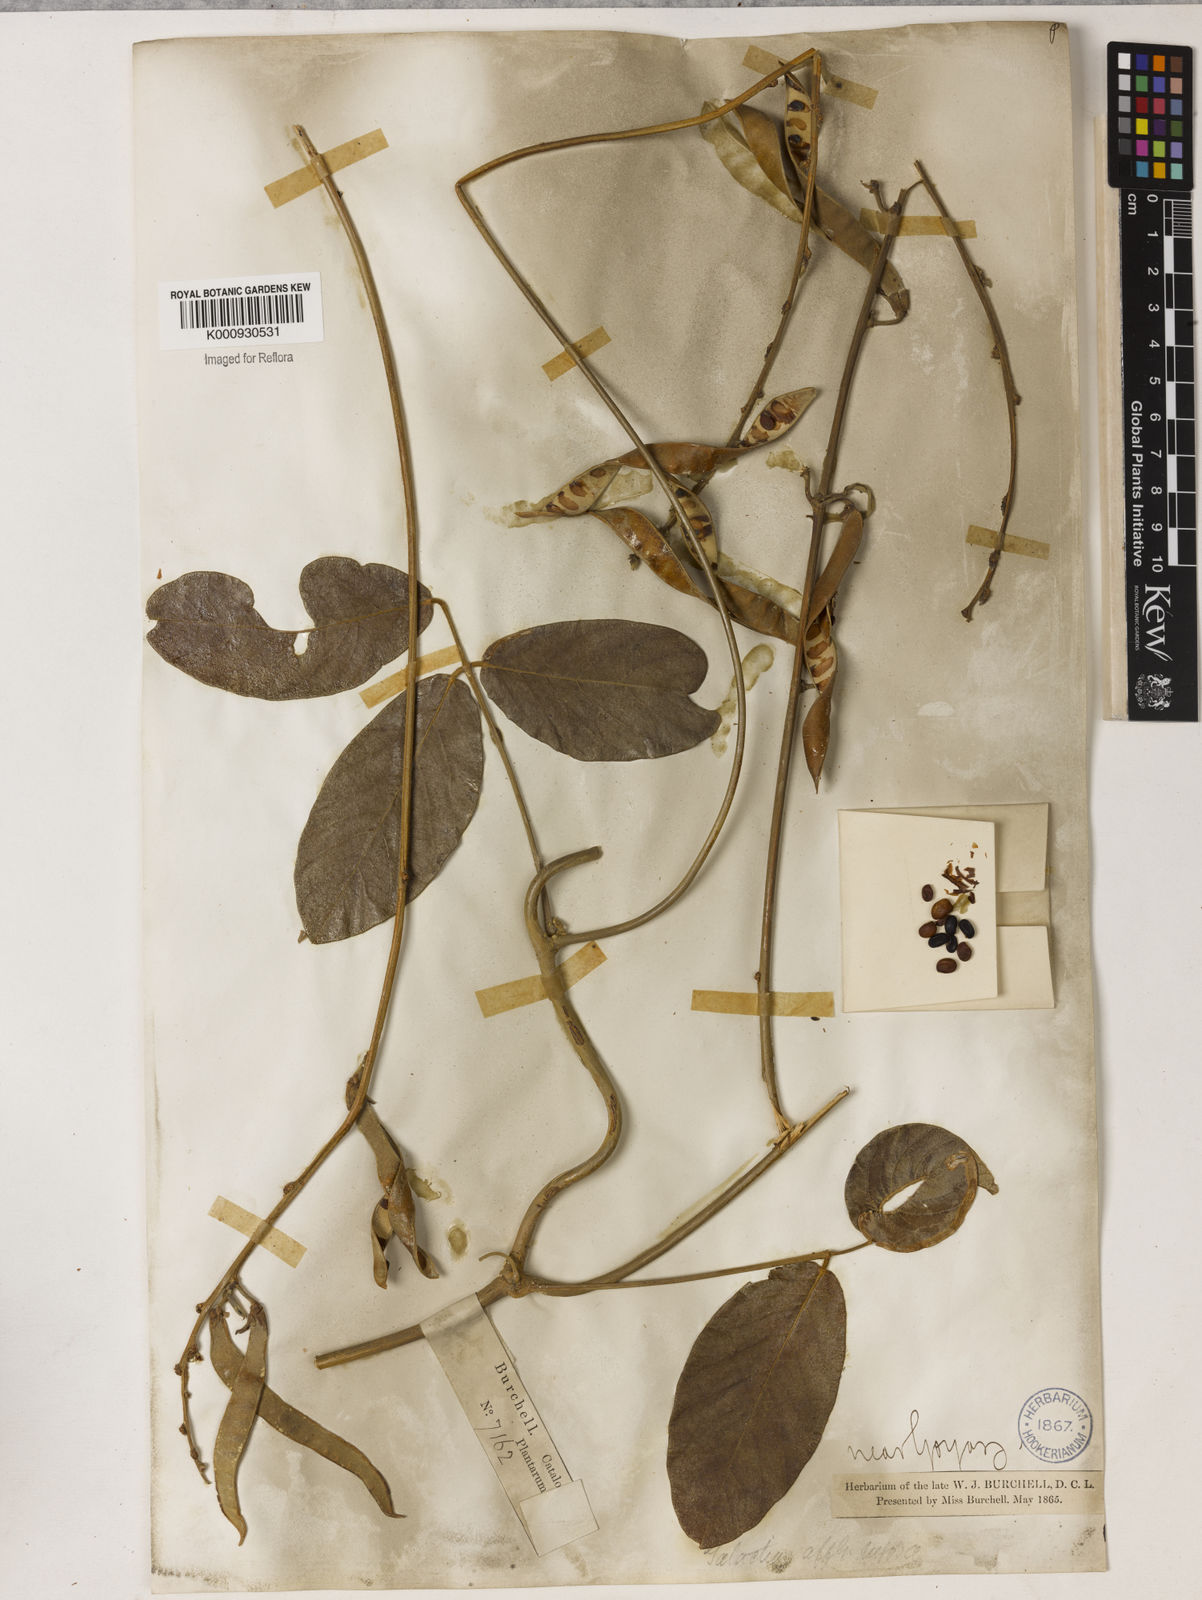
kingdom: Plantae
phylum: Tracheophyta
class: Magnoliopsida
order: Fabales
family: Fabaceae
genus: Galactia
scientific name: Galactia
